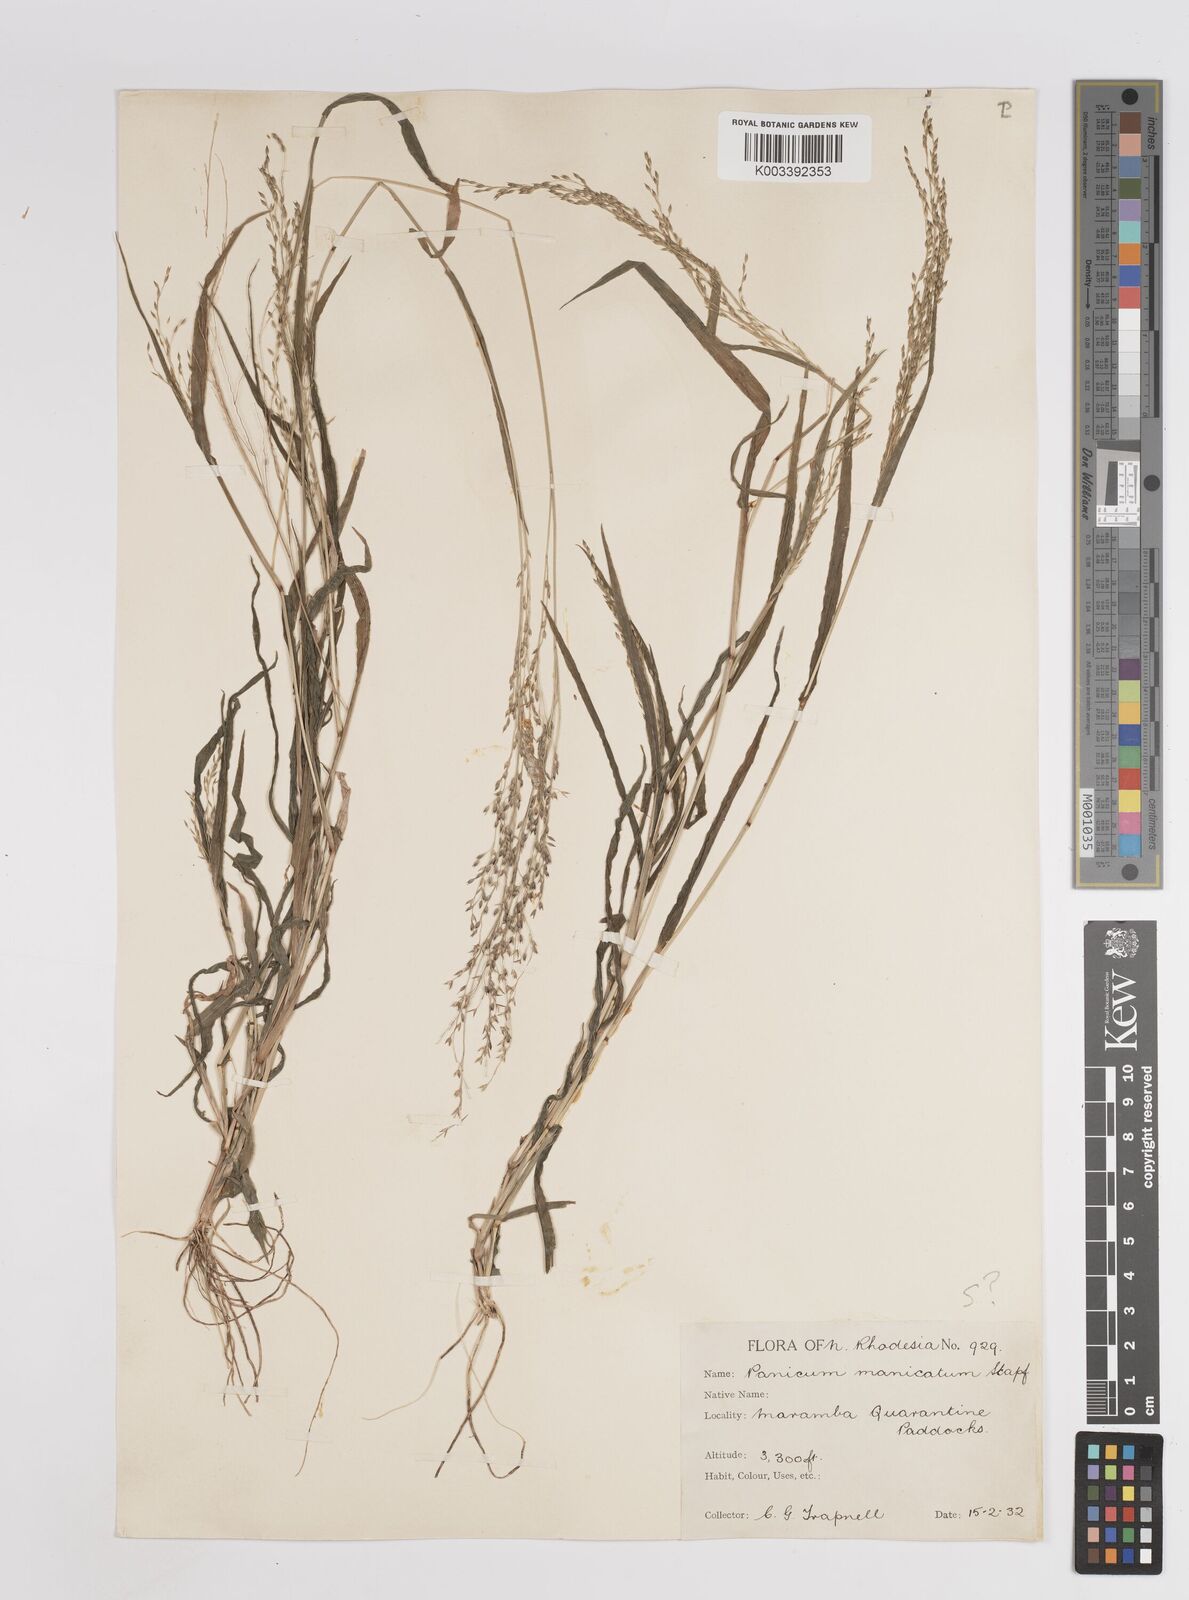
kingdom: Plantae
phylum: Tracheophyta
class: Liliopsida
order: Poales
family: Poaceae
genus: Panicum
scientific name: Panicum zambesiense
